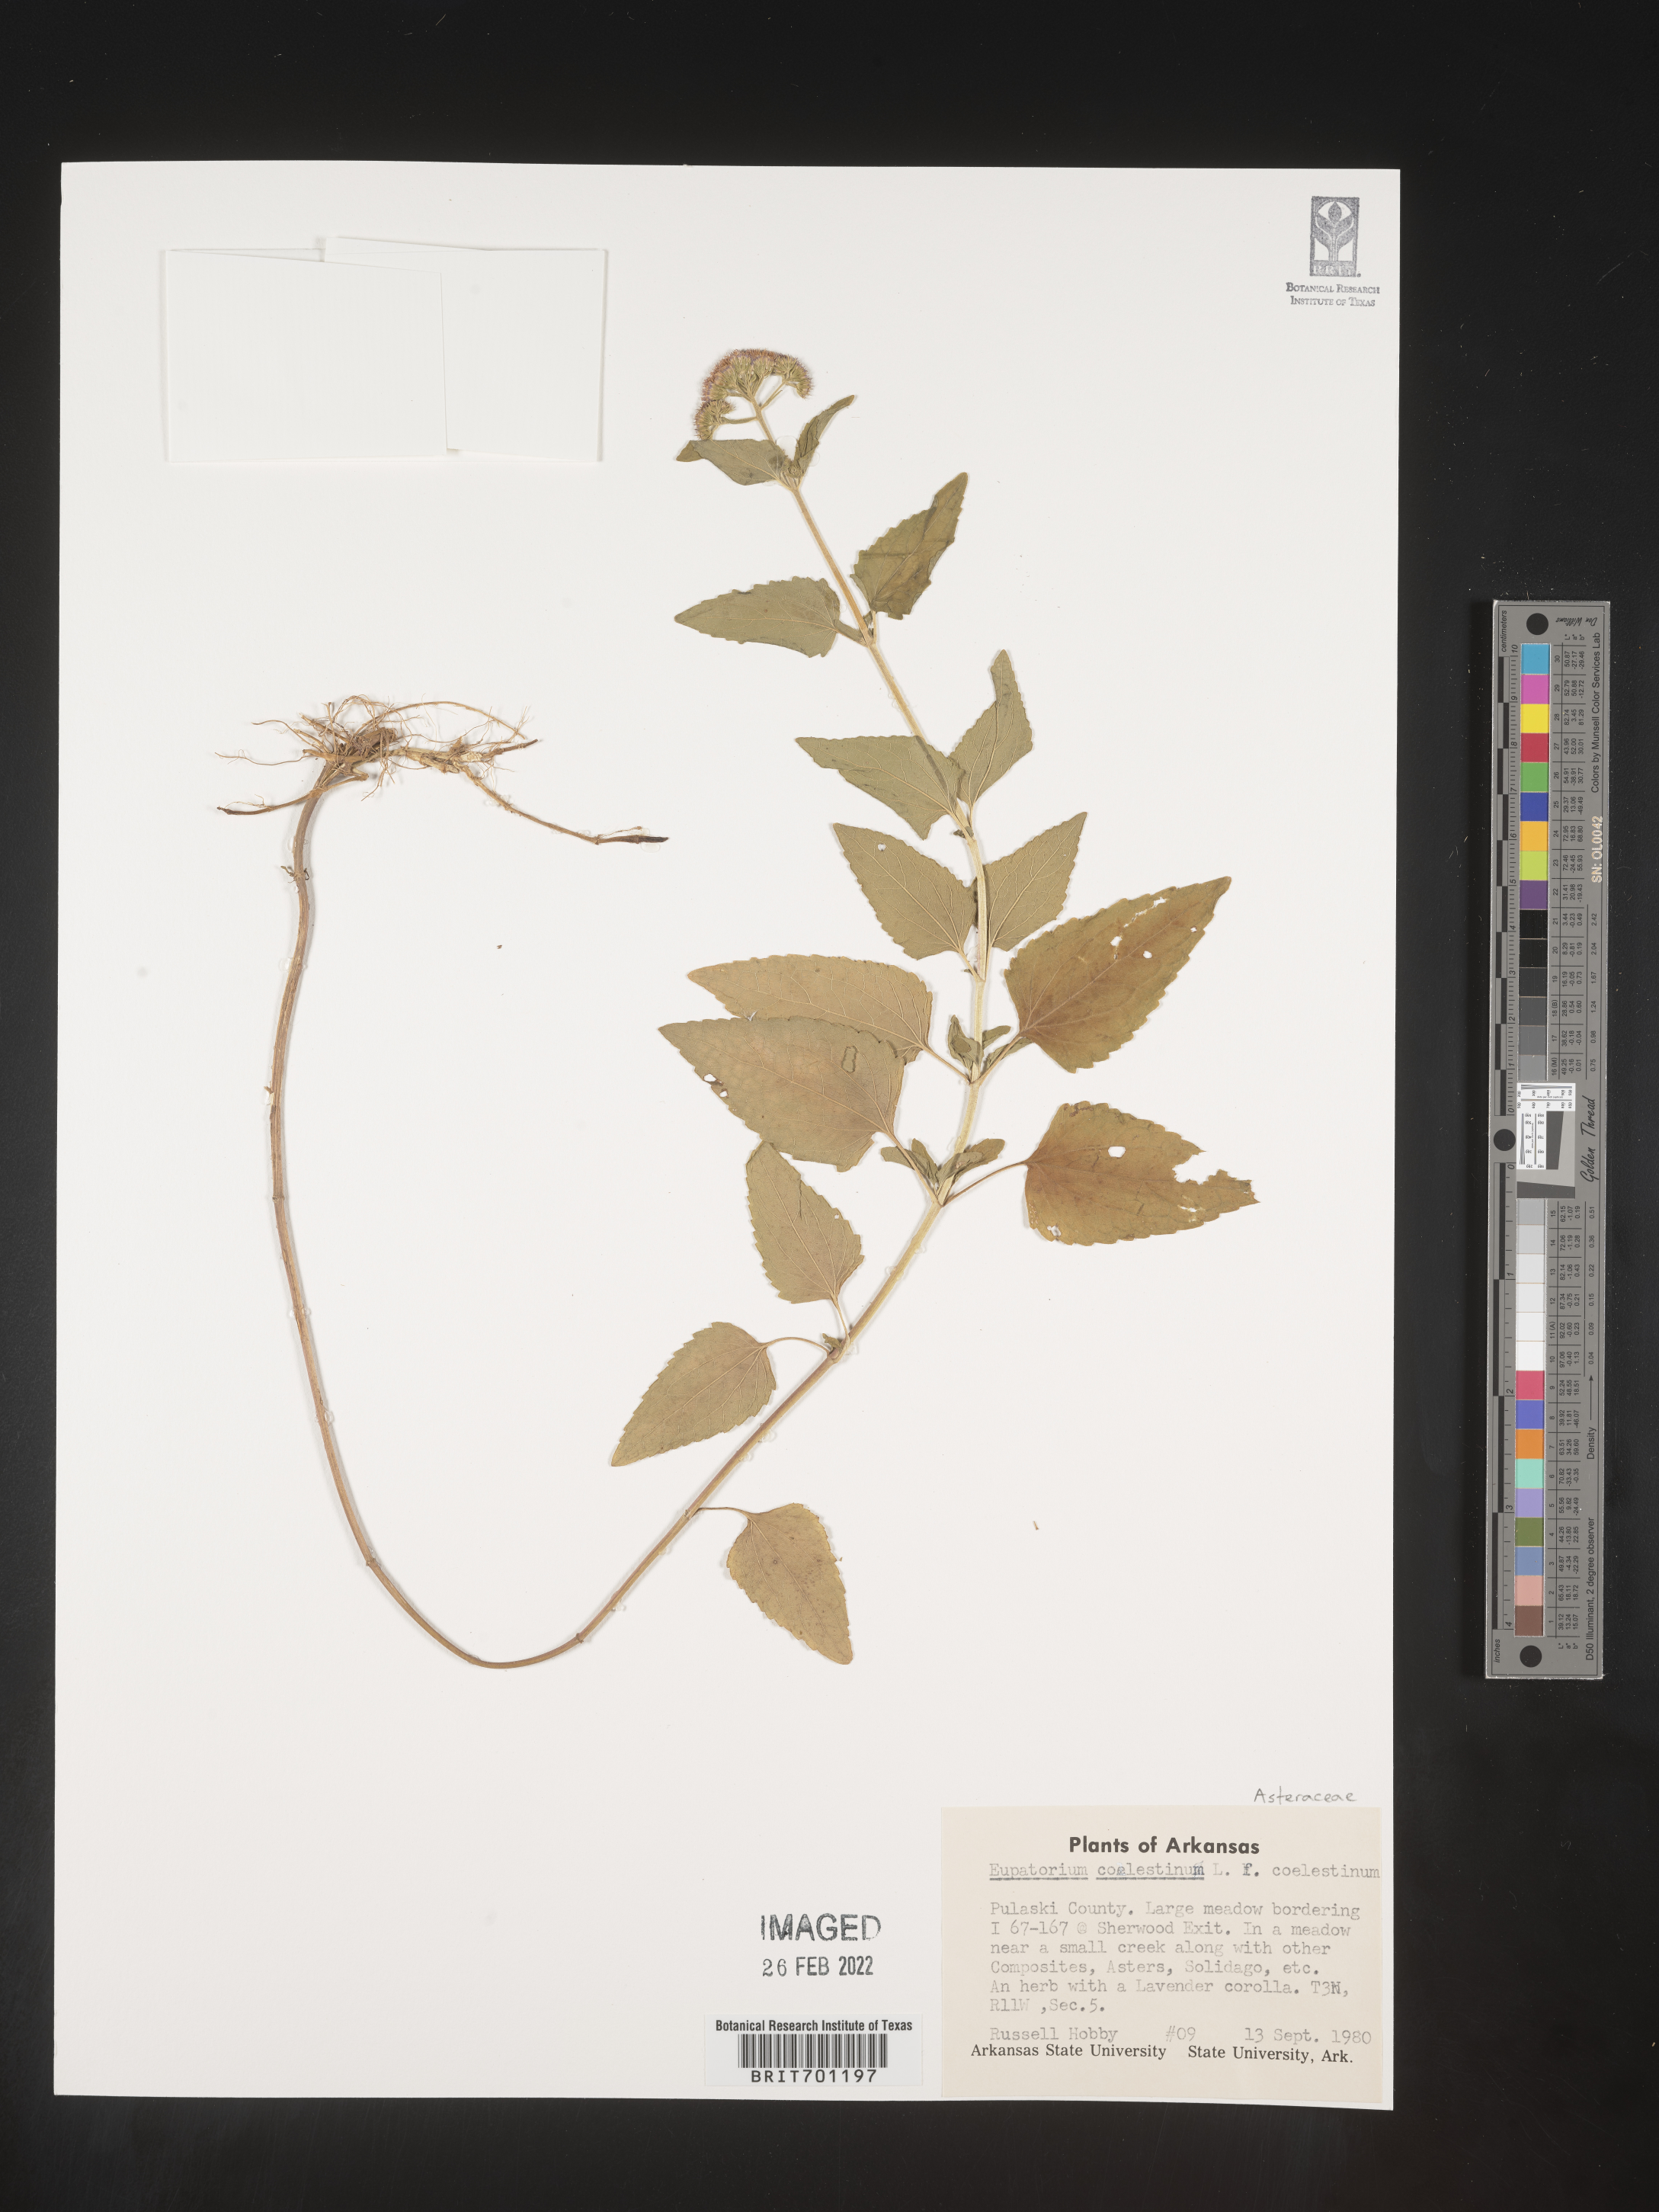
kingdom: Plantae
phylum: Tracheophyta
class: Magnoliopsida
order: Asterales
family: Asteraceae
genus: Conoclinium
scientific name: Conoclinium coelestinum
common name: Blue mistflower
